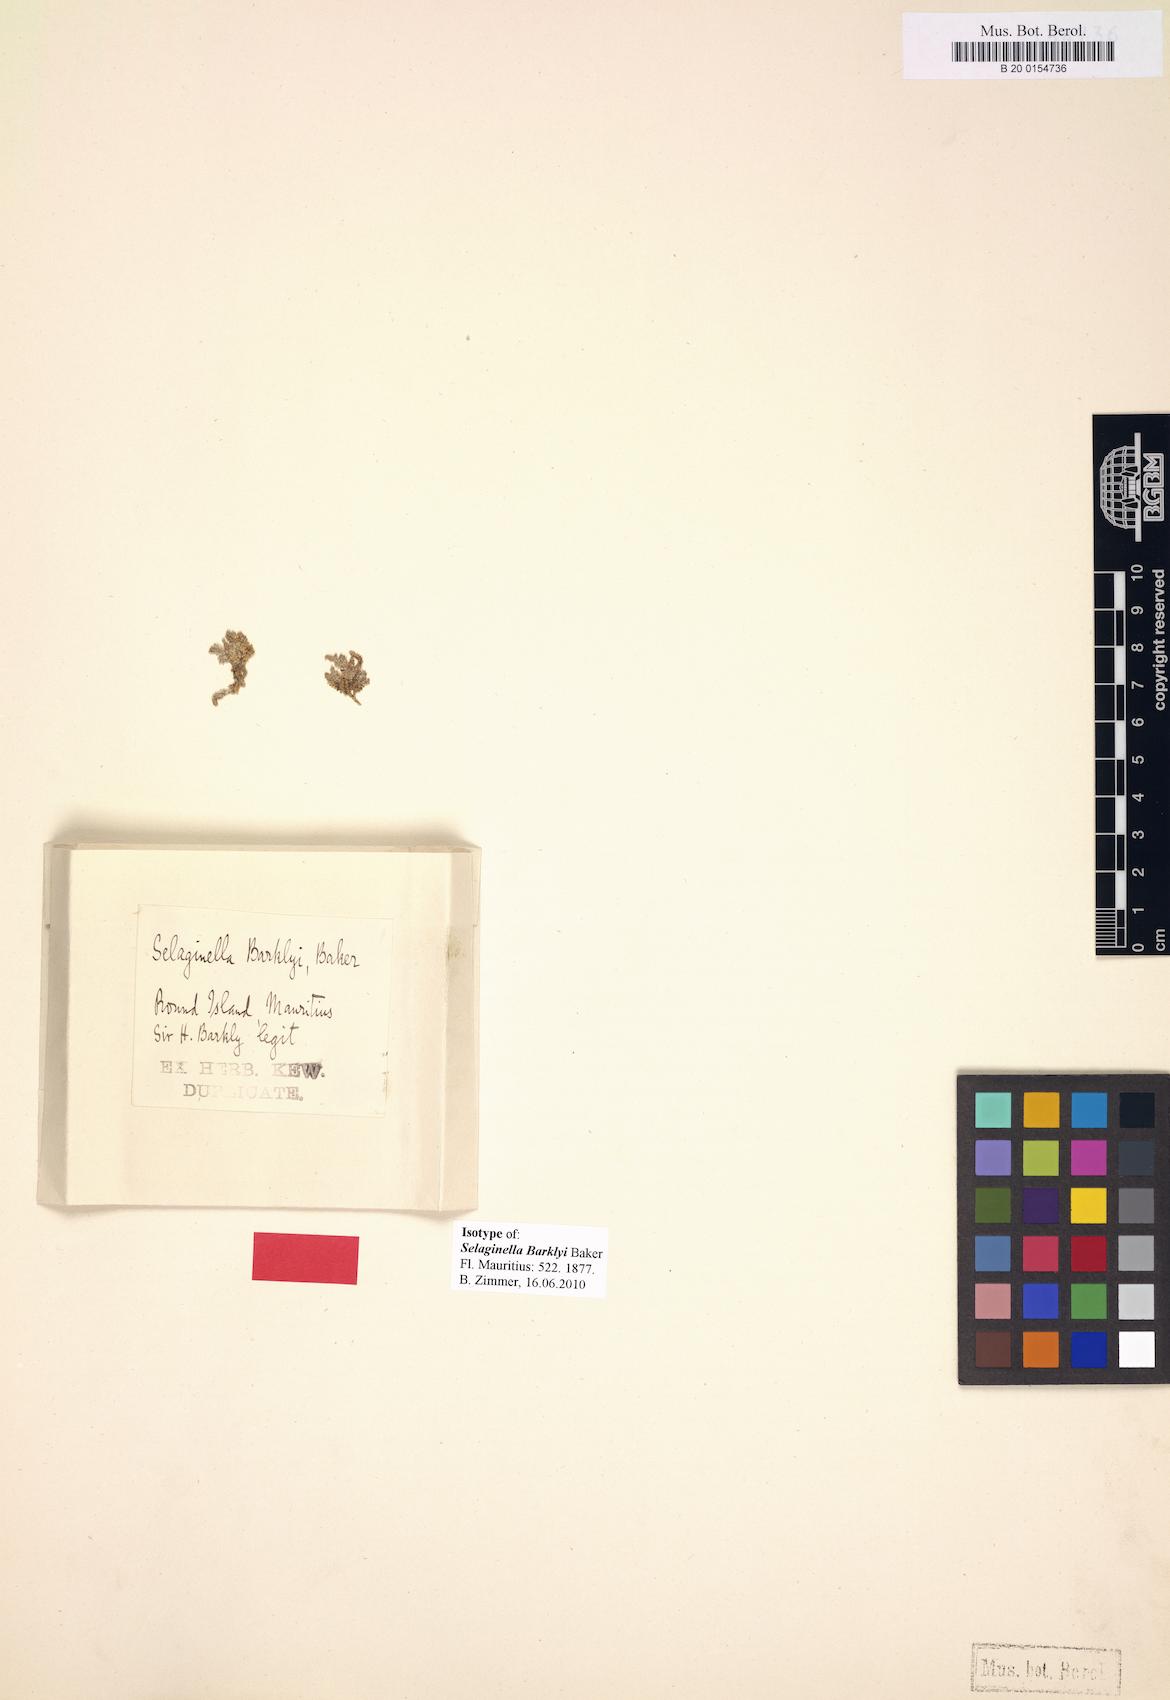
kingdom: Plantae
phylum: Tracheophyta
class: Lycopodiopsida
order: Selaginellales
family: Selaginellaceae
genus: Selaginella
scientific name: Selaginella obtusa
